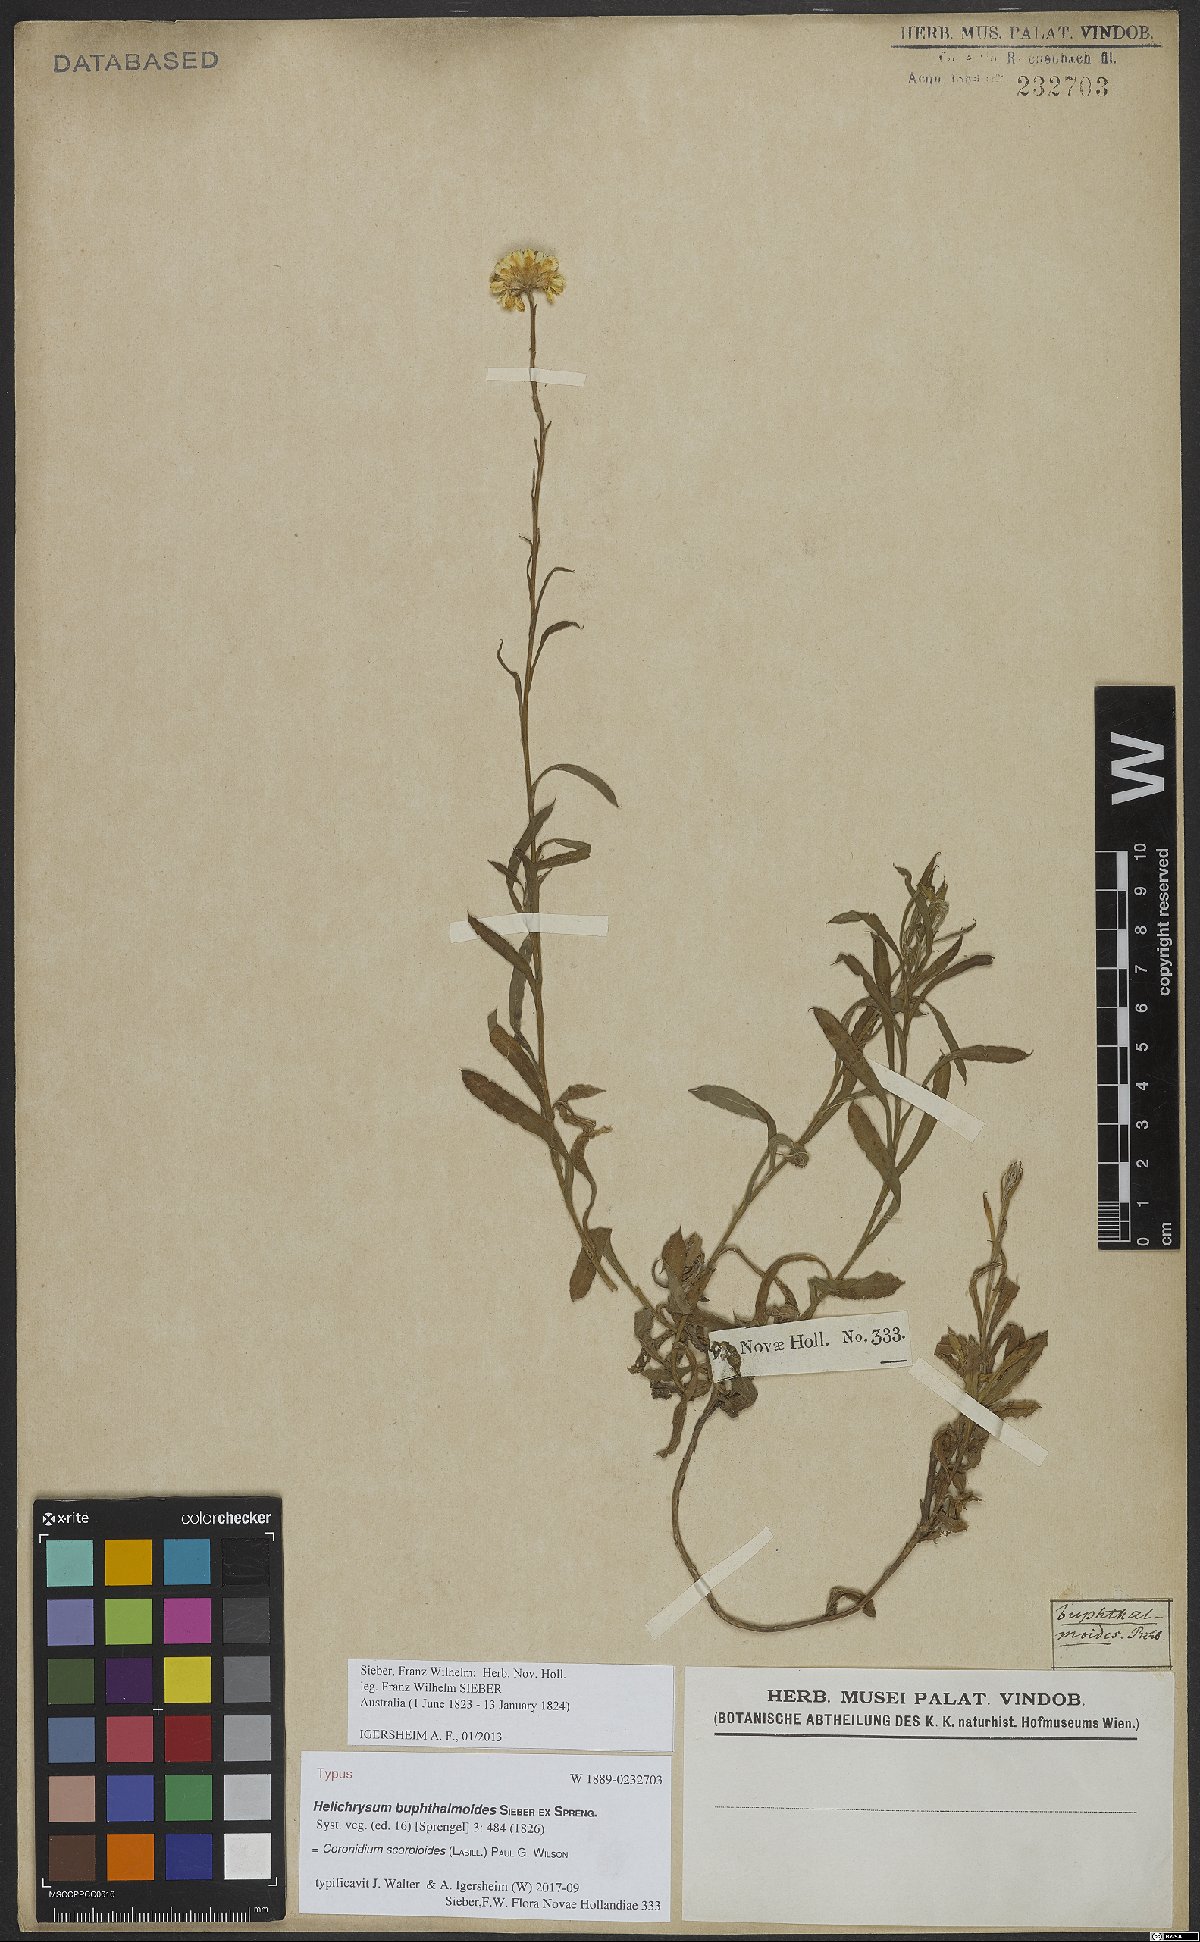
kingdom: Plantae
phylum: Tracheophyta
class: Magnoliopsida
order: Asterales
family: Asteraceae
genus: Coronidium
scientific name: Coronidium scorpioides
